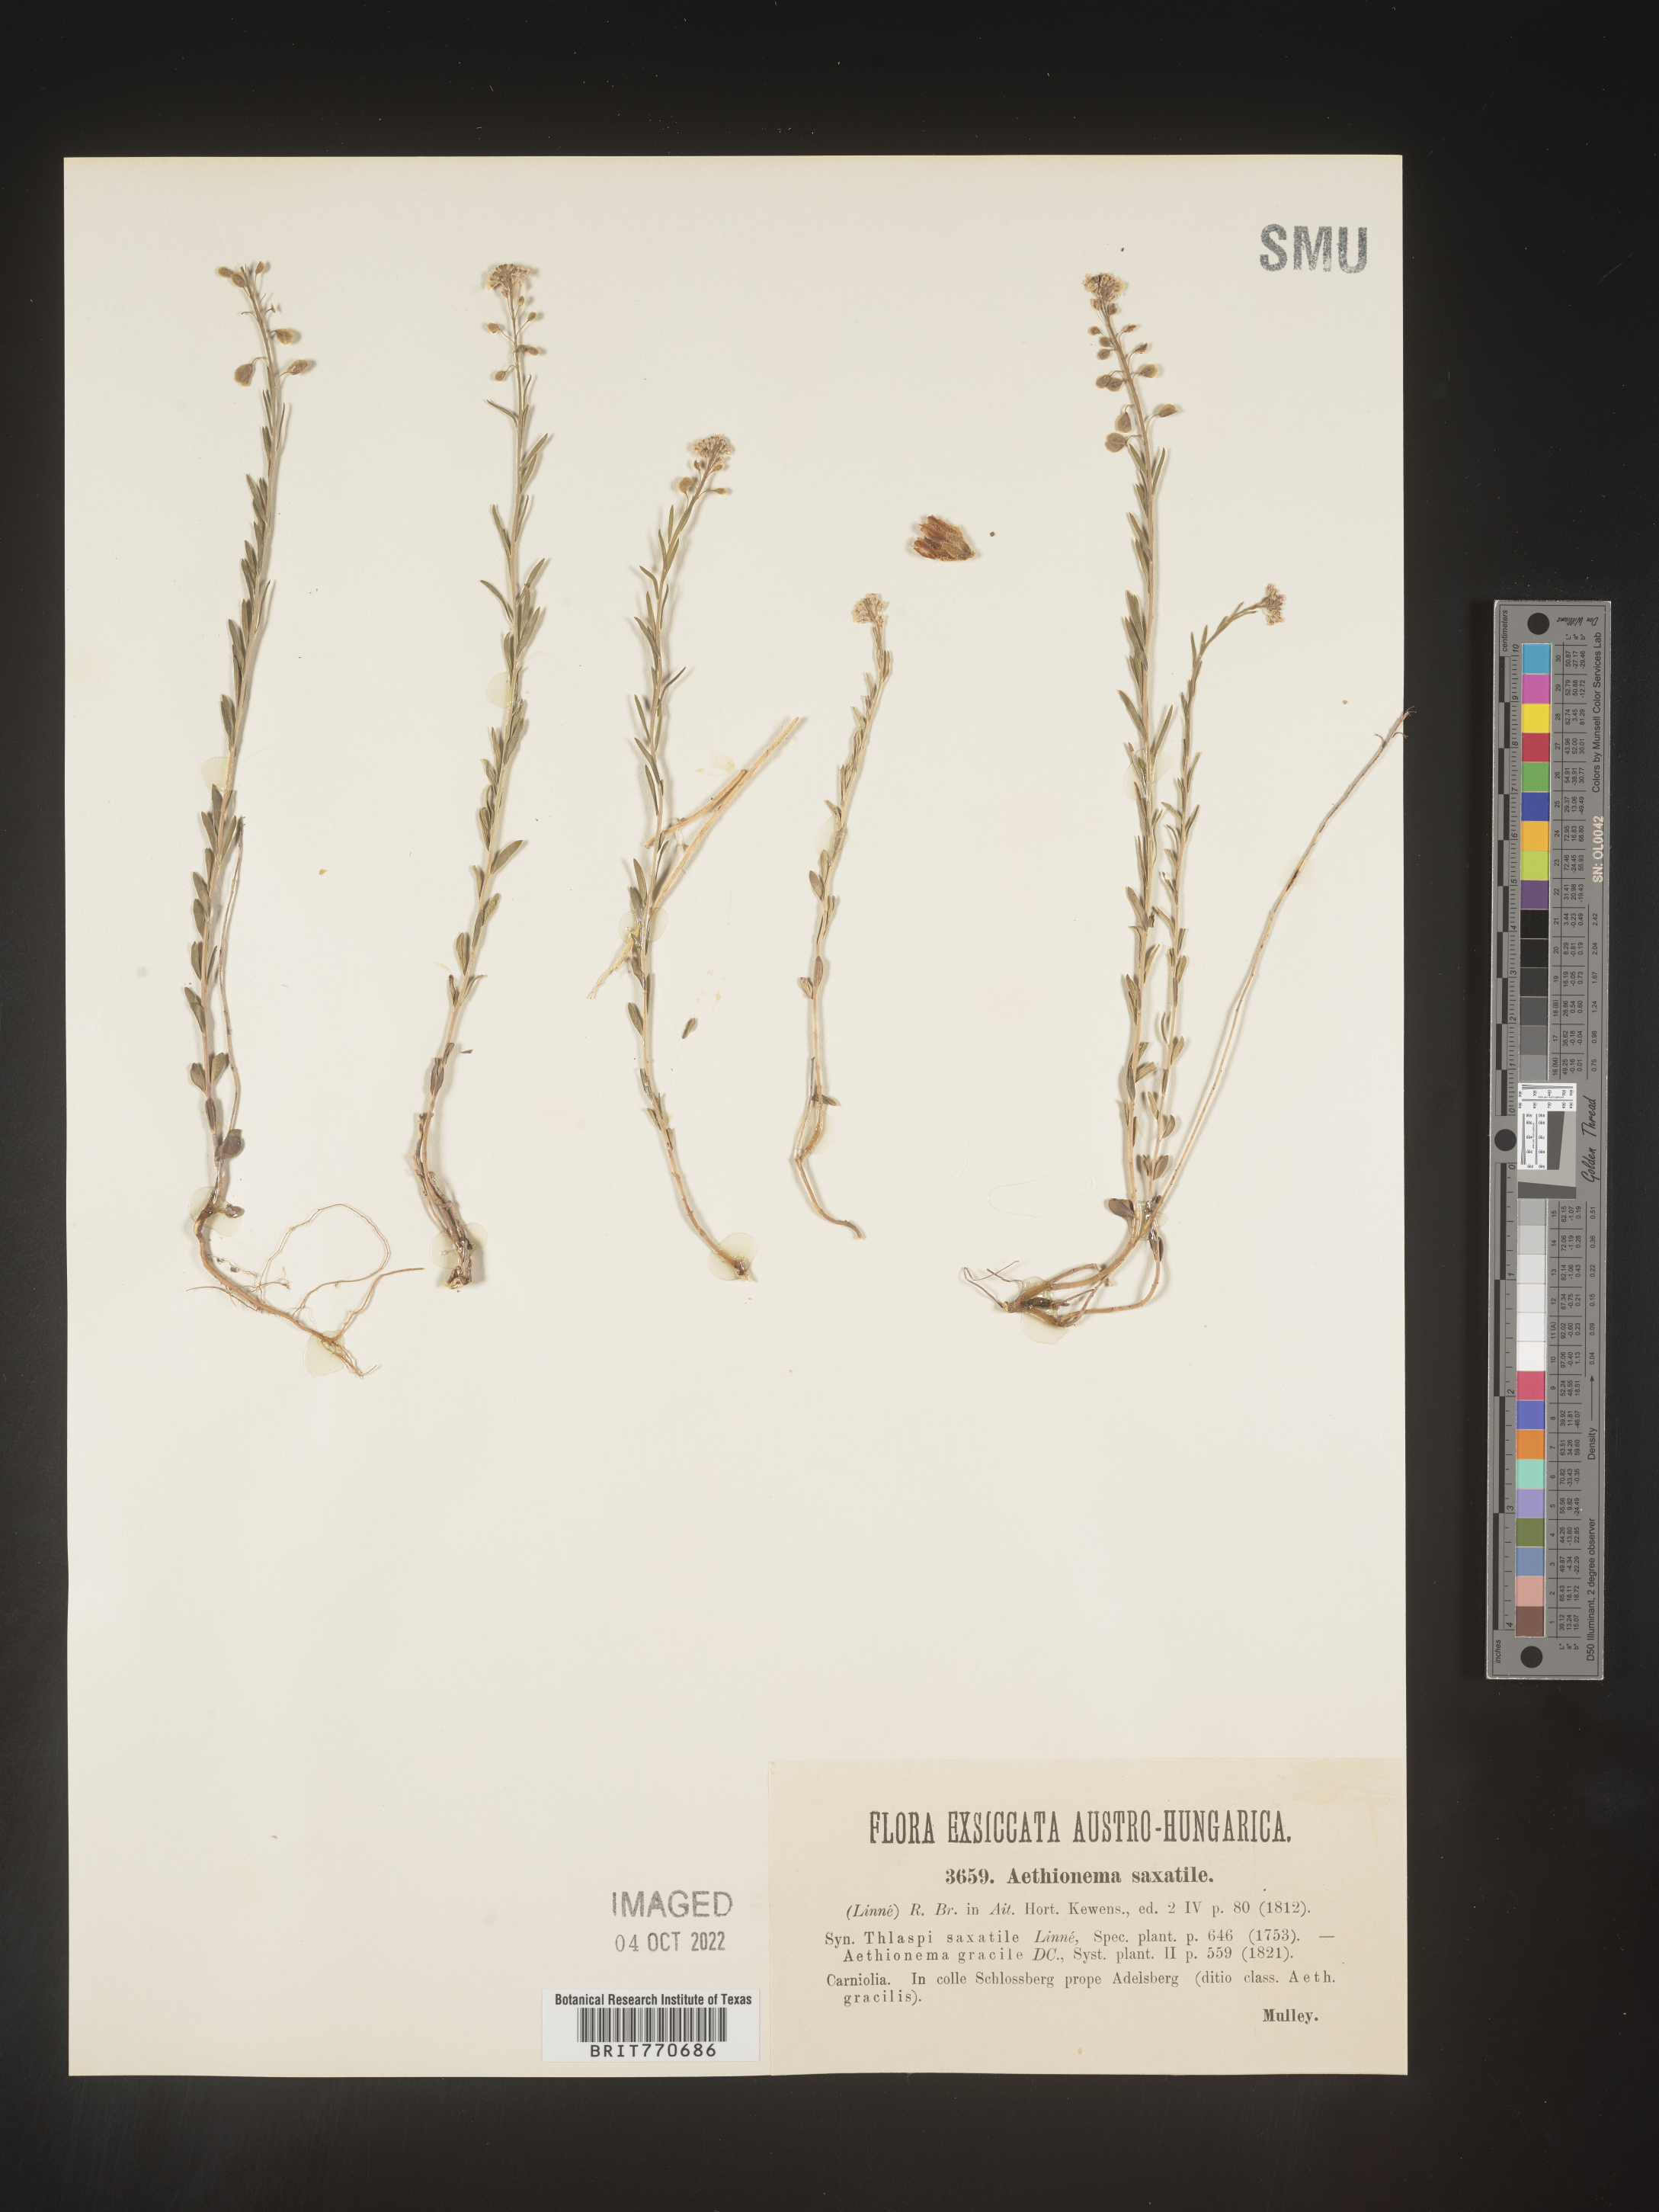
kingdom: Plantae
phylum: Tracheophyta
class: Magnoliopsida
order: Brassicales
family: Brassicaceae
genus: Aethionema
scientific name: Aethionema
